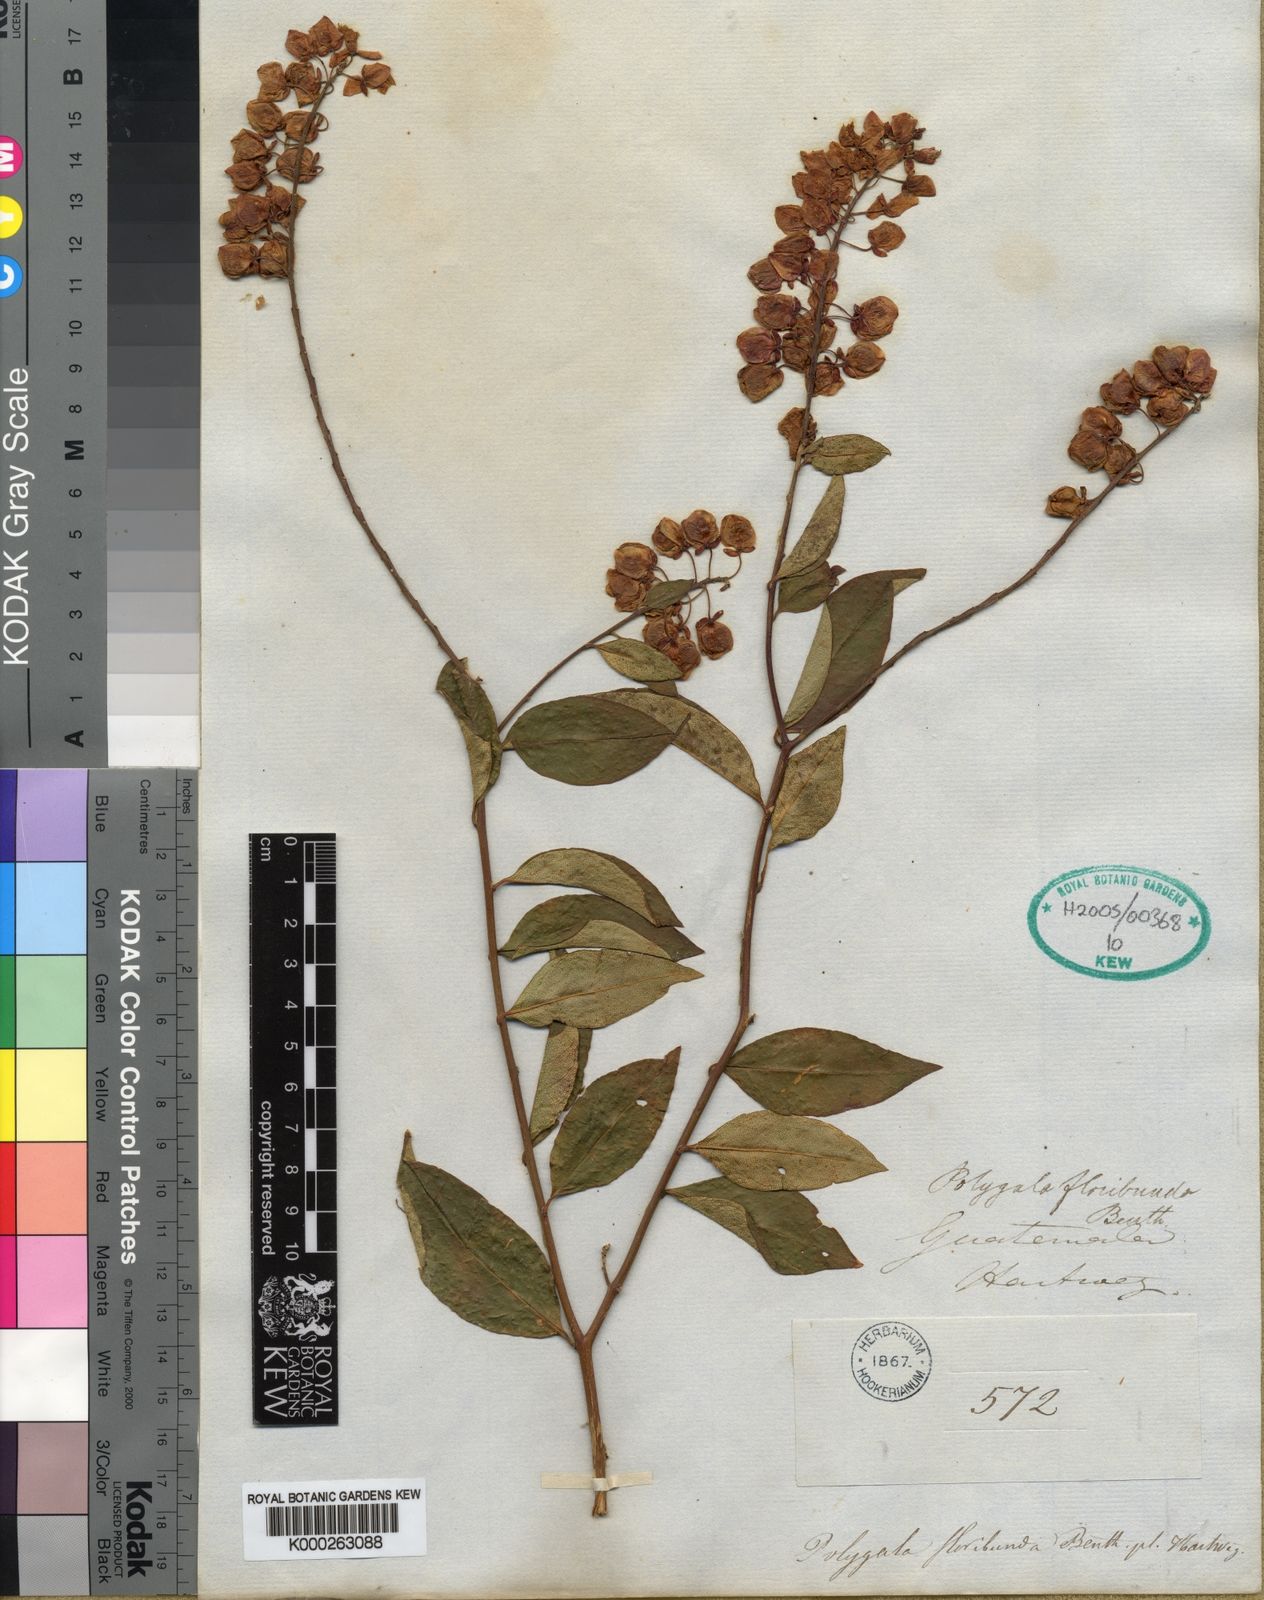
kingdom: Plantae
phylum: Tracheophyta
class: Magnoliopsida
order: Fabales
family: Polygalaceae
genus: Asemeia
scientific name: Asemeia floribunda
